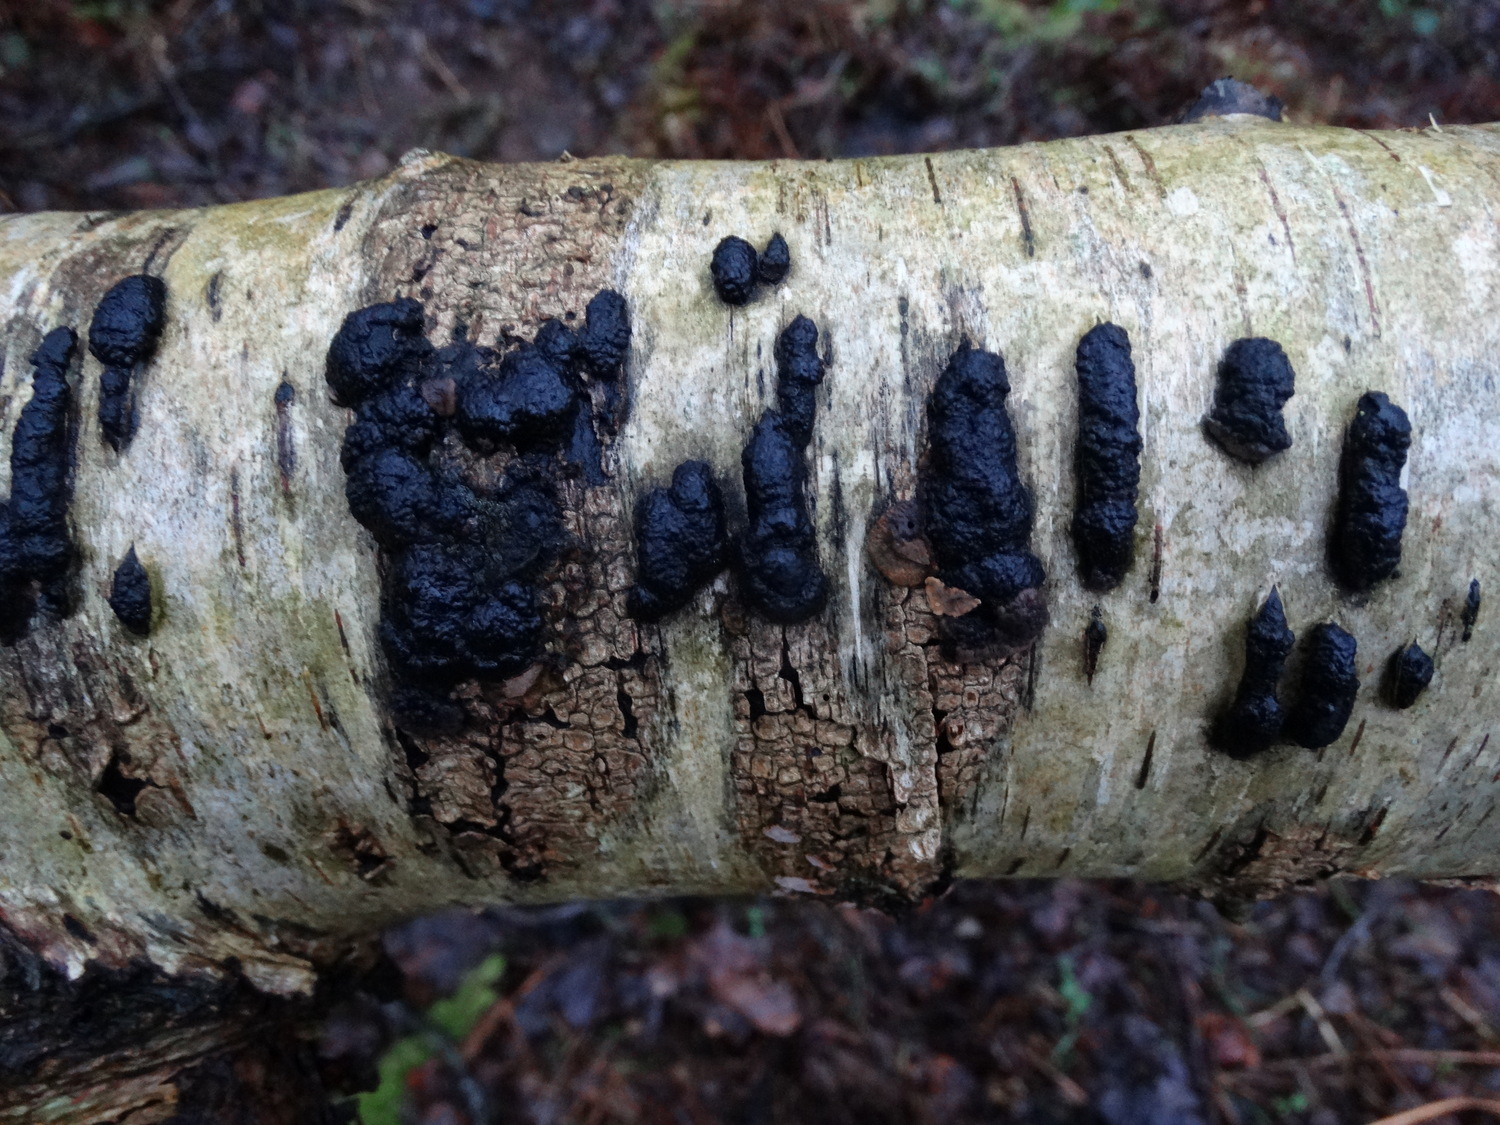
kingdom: Fungi
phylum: Ascomycota
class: Sordariomycetes
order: Xylariales
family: Hypoxylaceae
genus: Jackrogersella
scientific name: Jackrogersella multiformis
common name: foranderlig kulbær
